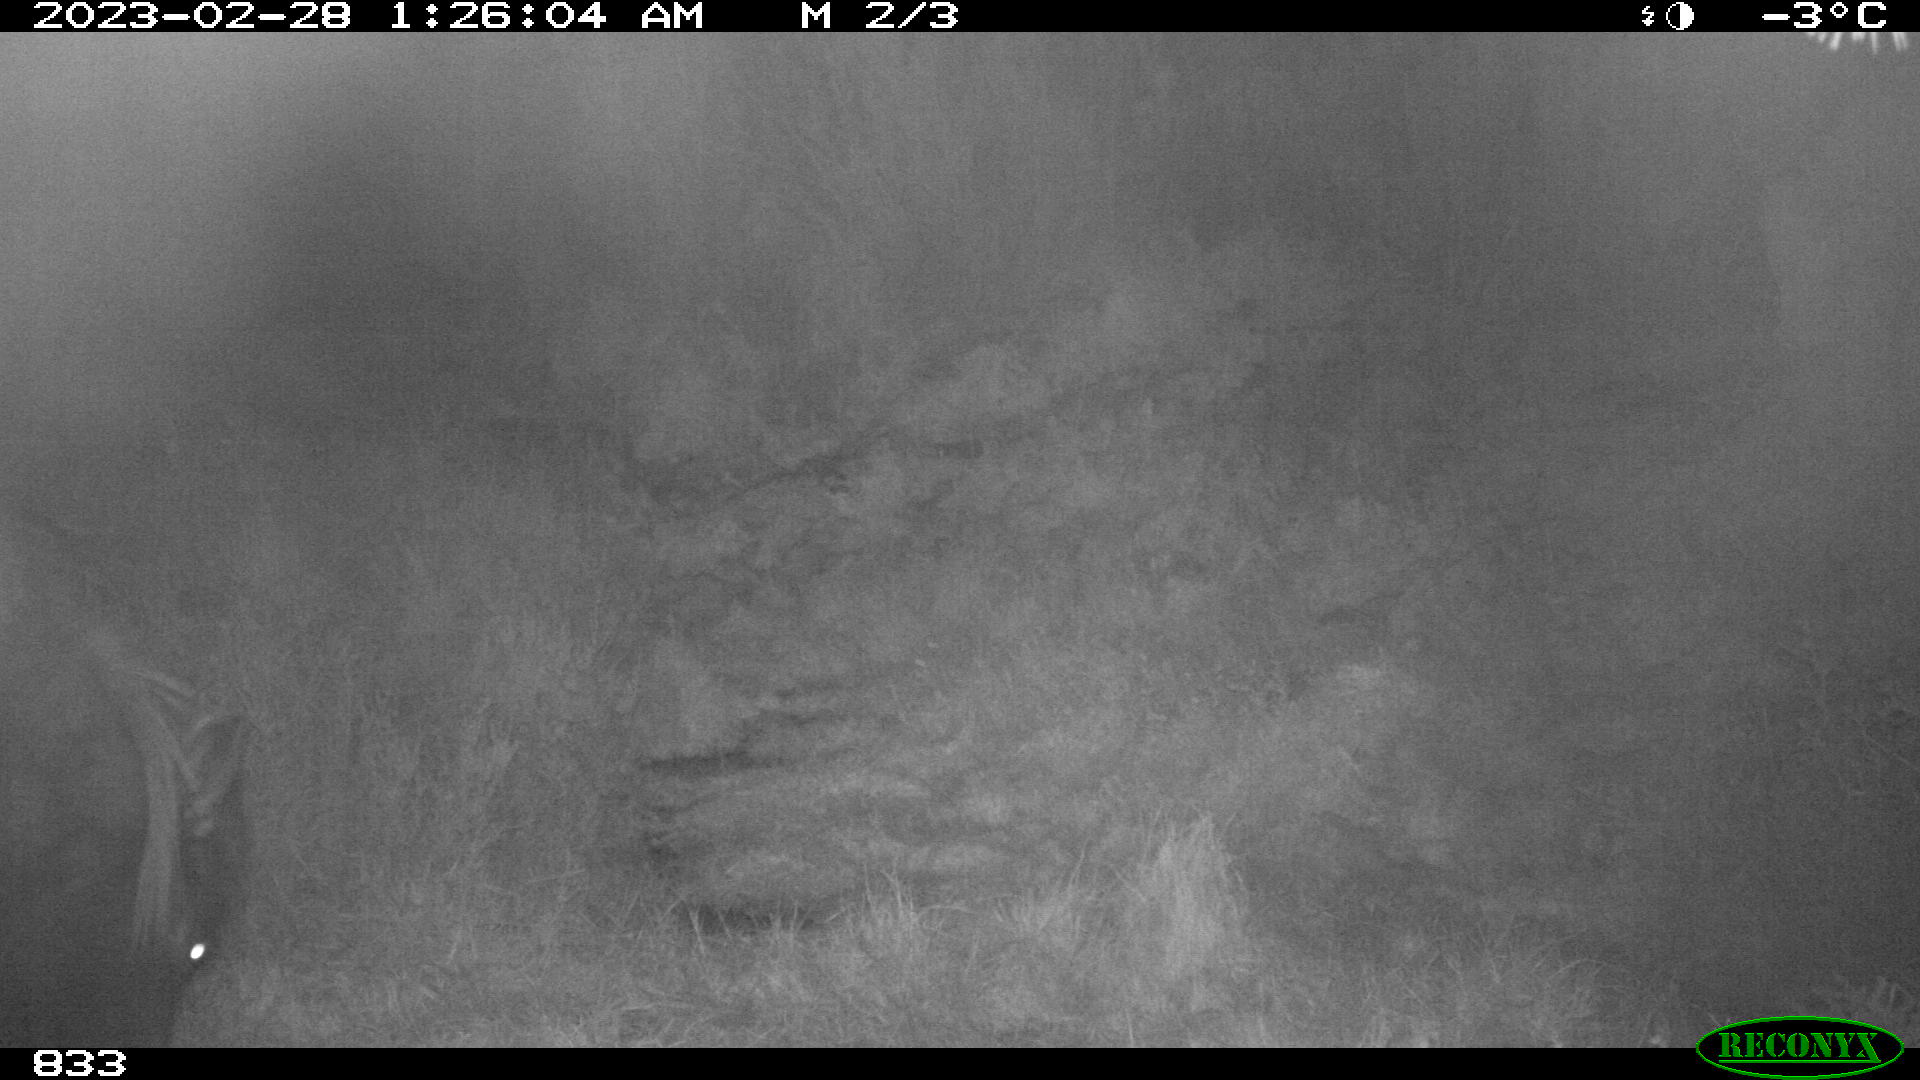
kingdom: Animalia
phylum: Chordata
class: Mammalia
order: Perissodactyla
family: Equidae
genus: Equus
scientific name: Equus caballus
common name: Horse
